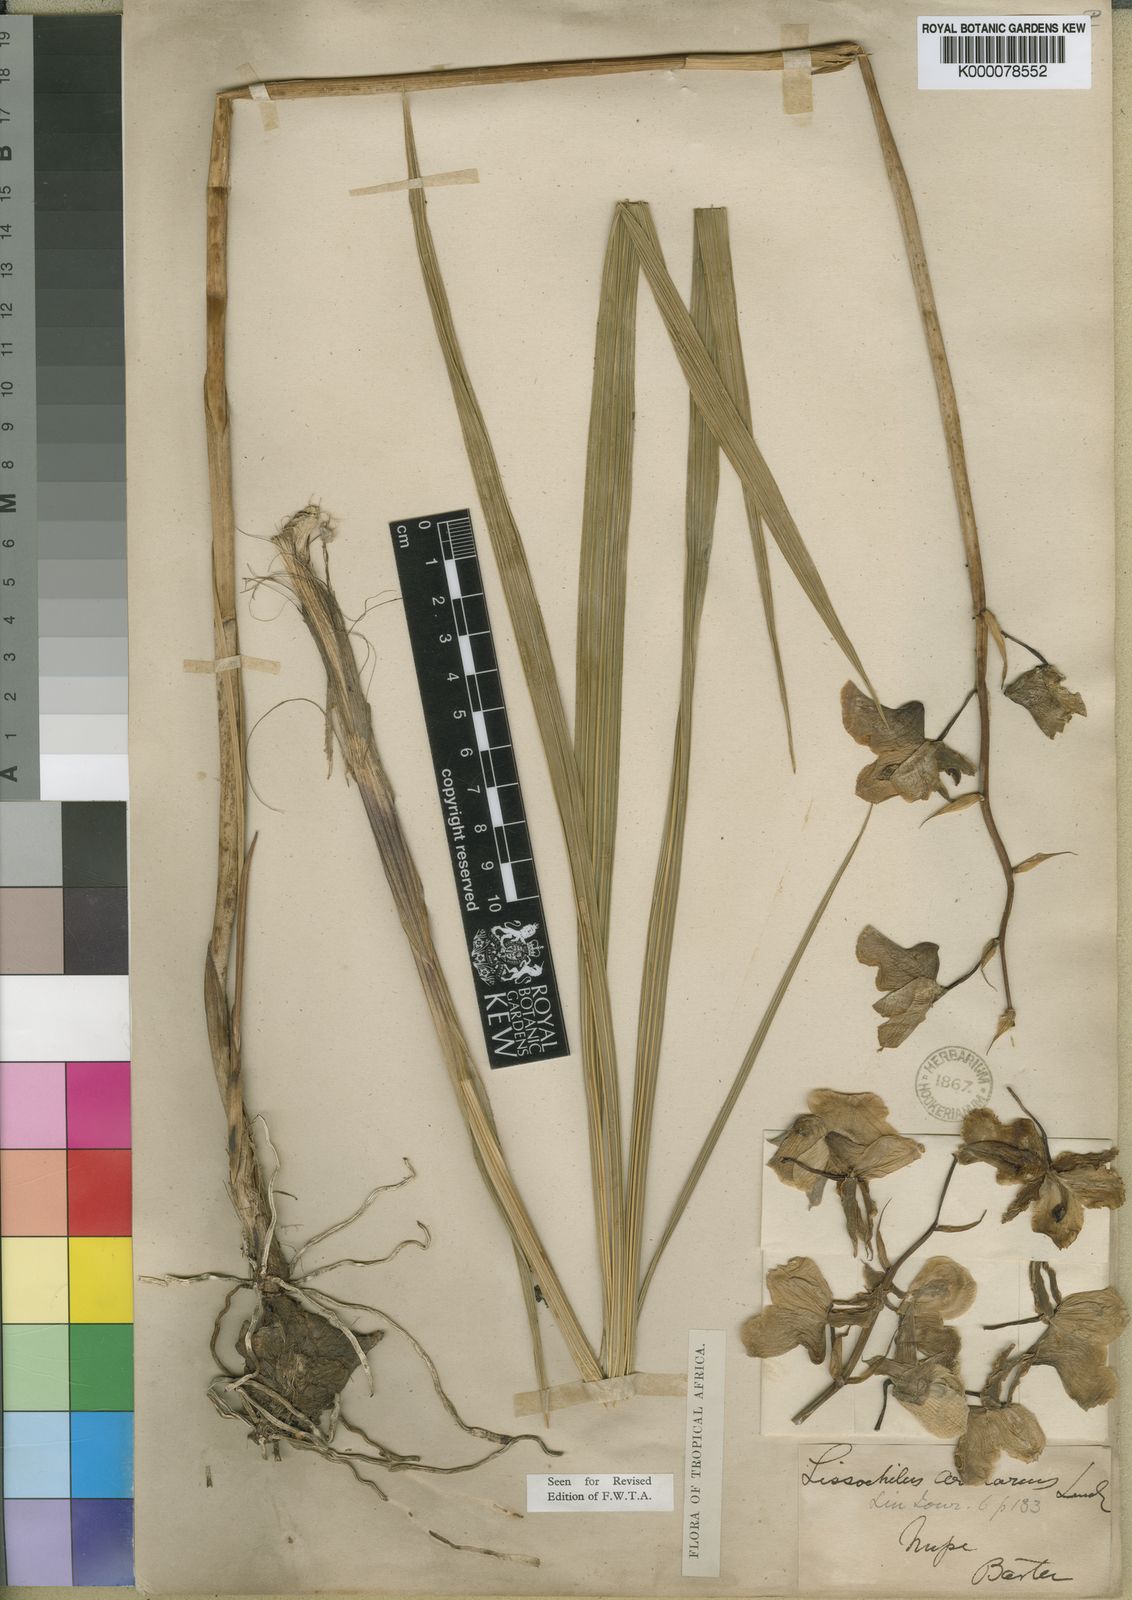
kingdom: Plantae
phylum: Tracheophyta
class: Liliopsida
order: Asparagales
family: Orchidaceae
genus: Eulophia
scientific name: Eulophia cucullata
